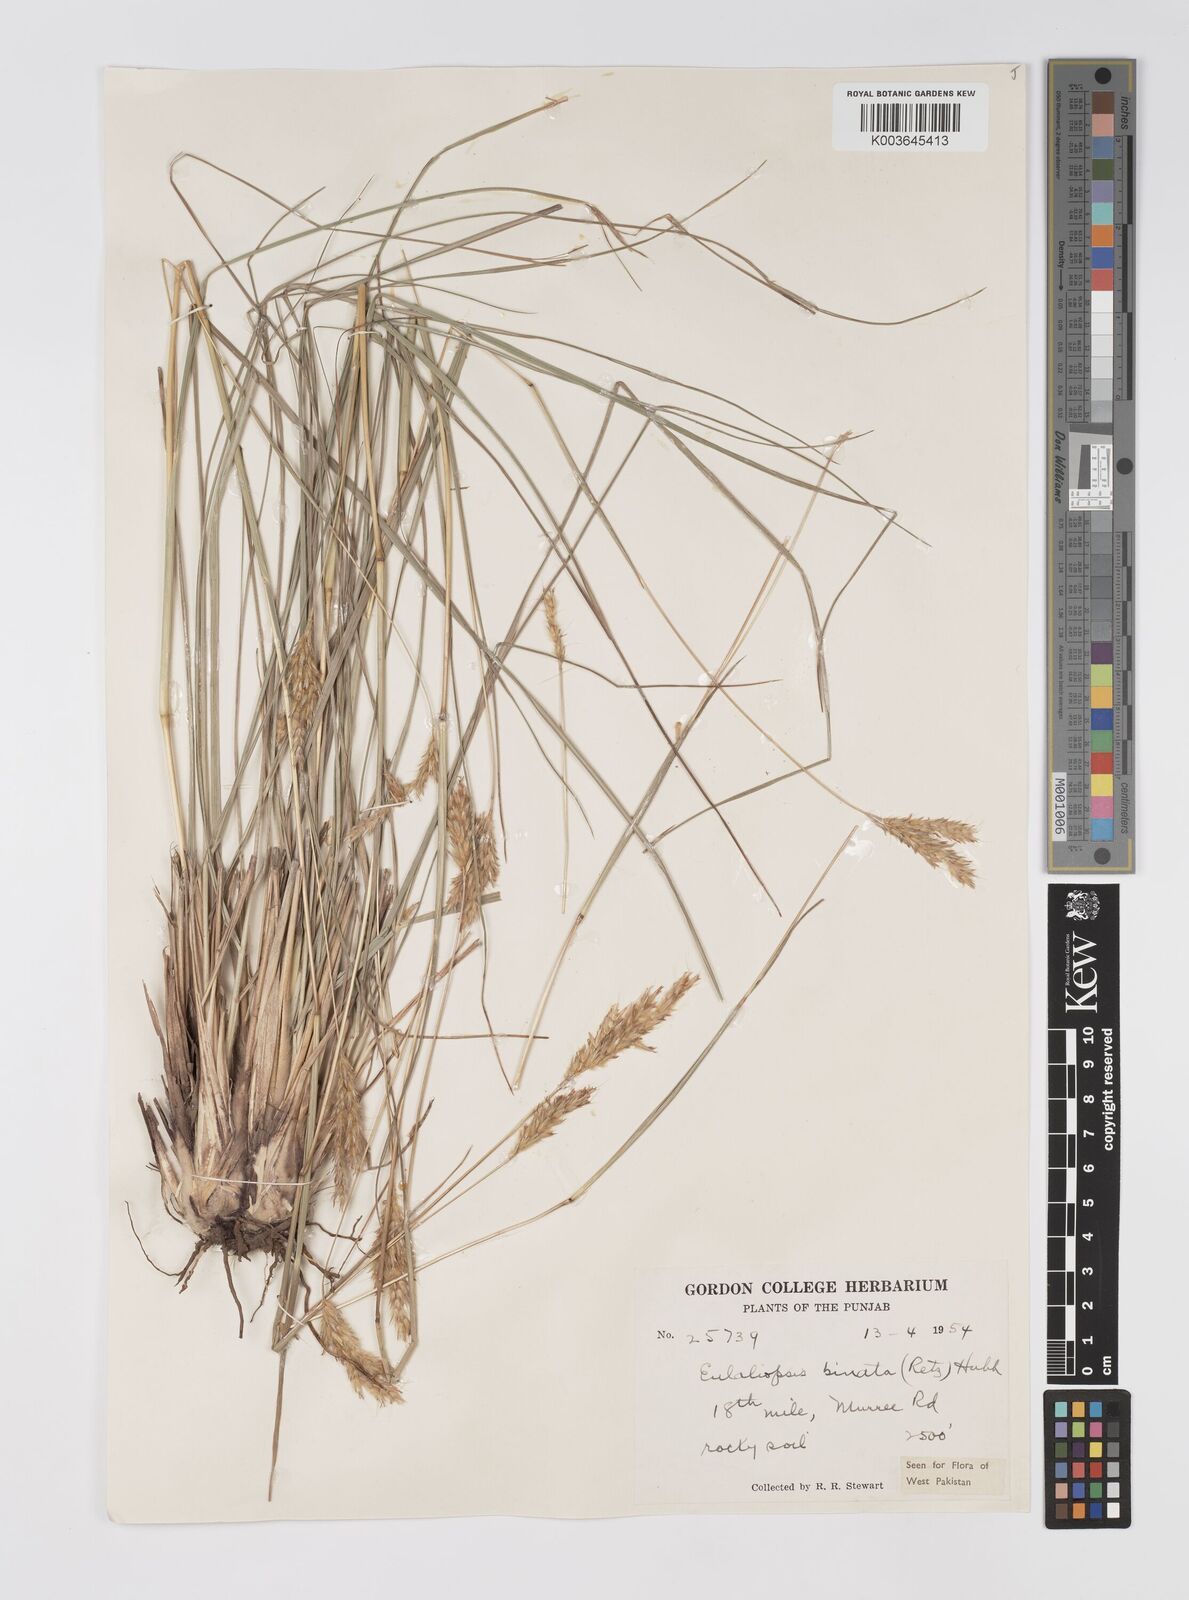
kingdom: Plantae
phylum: Tracheophyta
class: Liliopsida
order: Poales
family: Poaceae
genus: Eulaliopsis
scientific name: Eulaliopsis binata
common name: Baib grass
